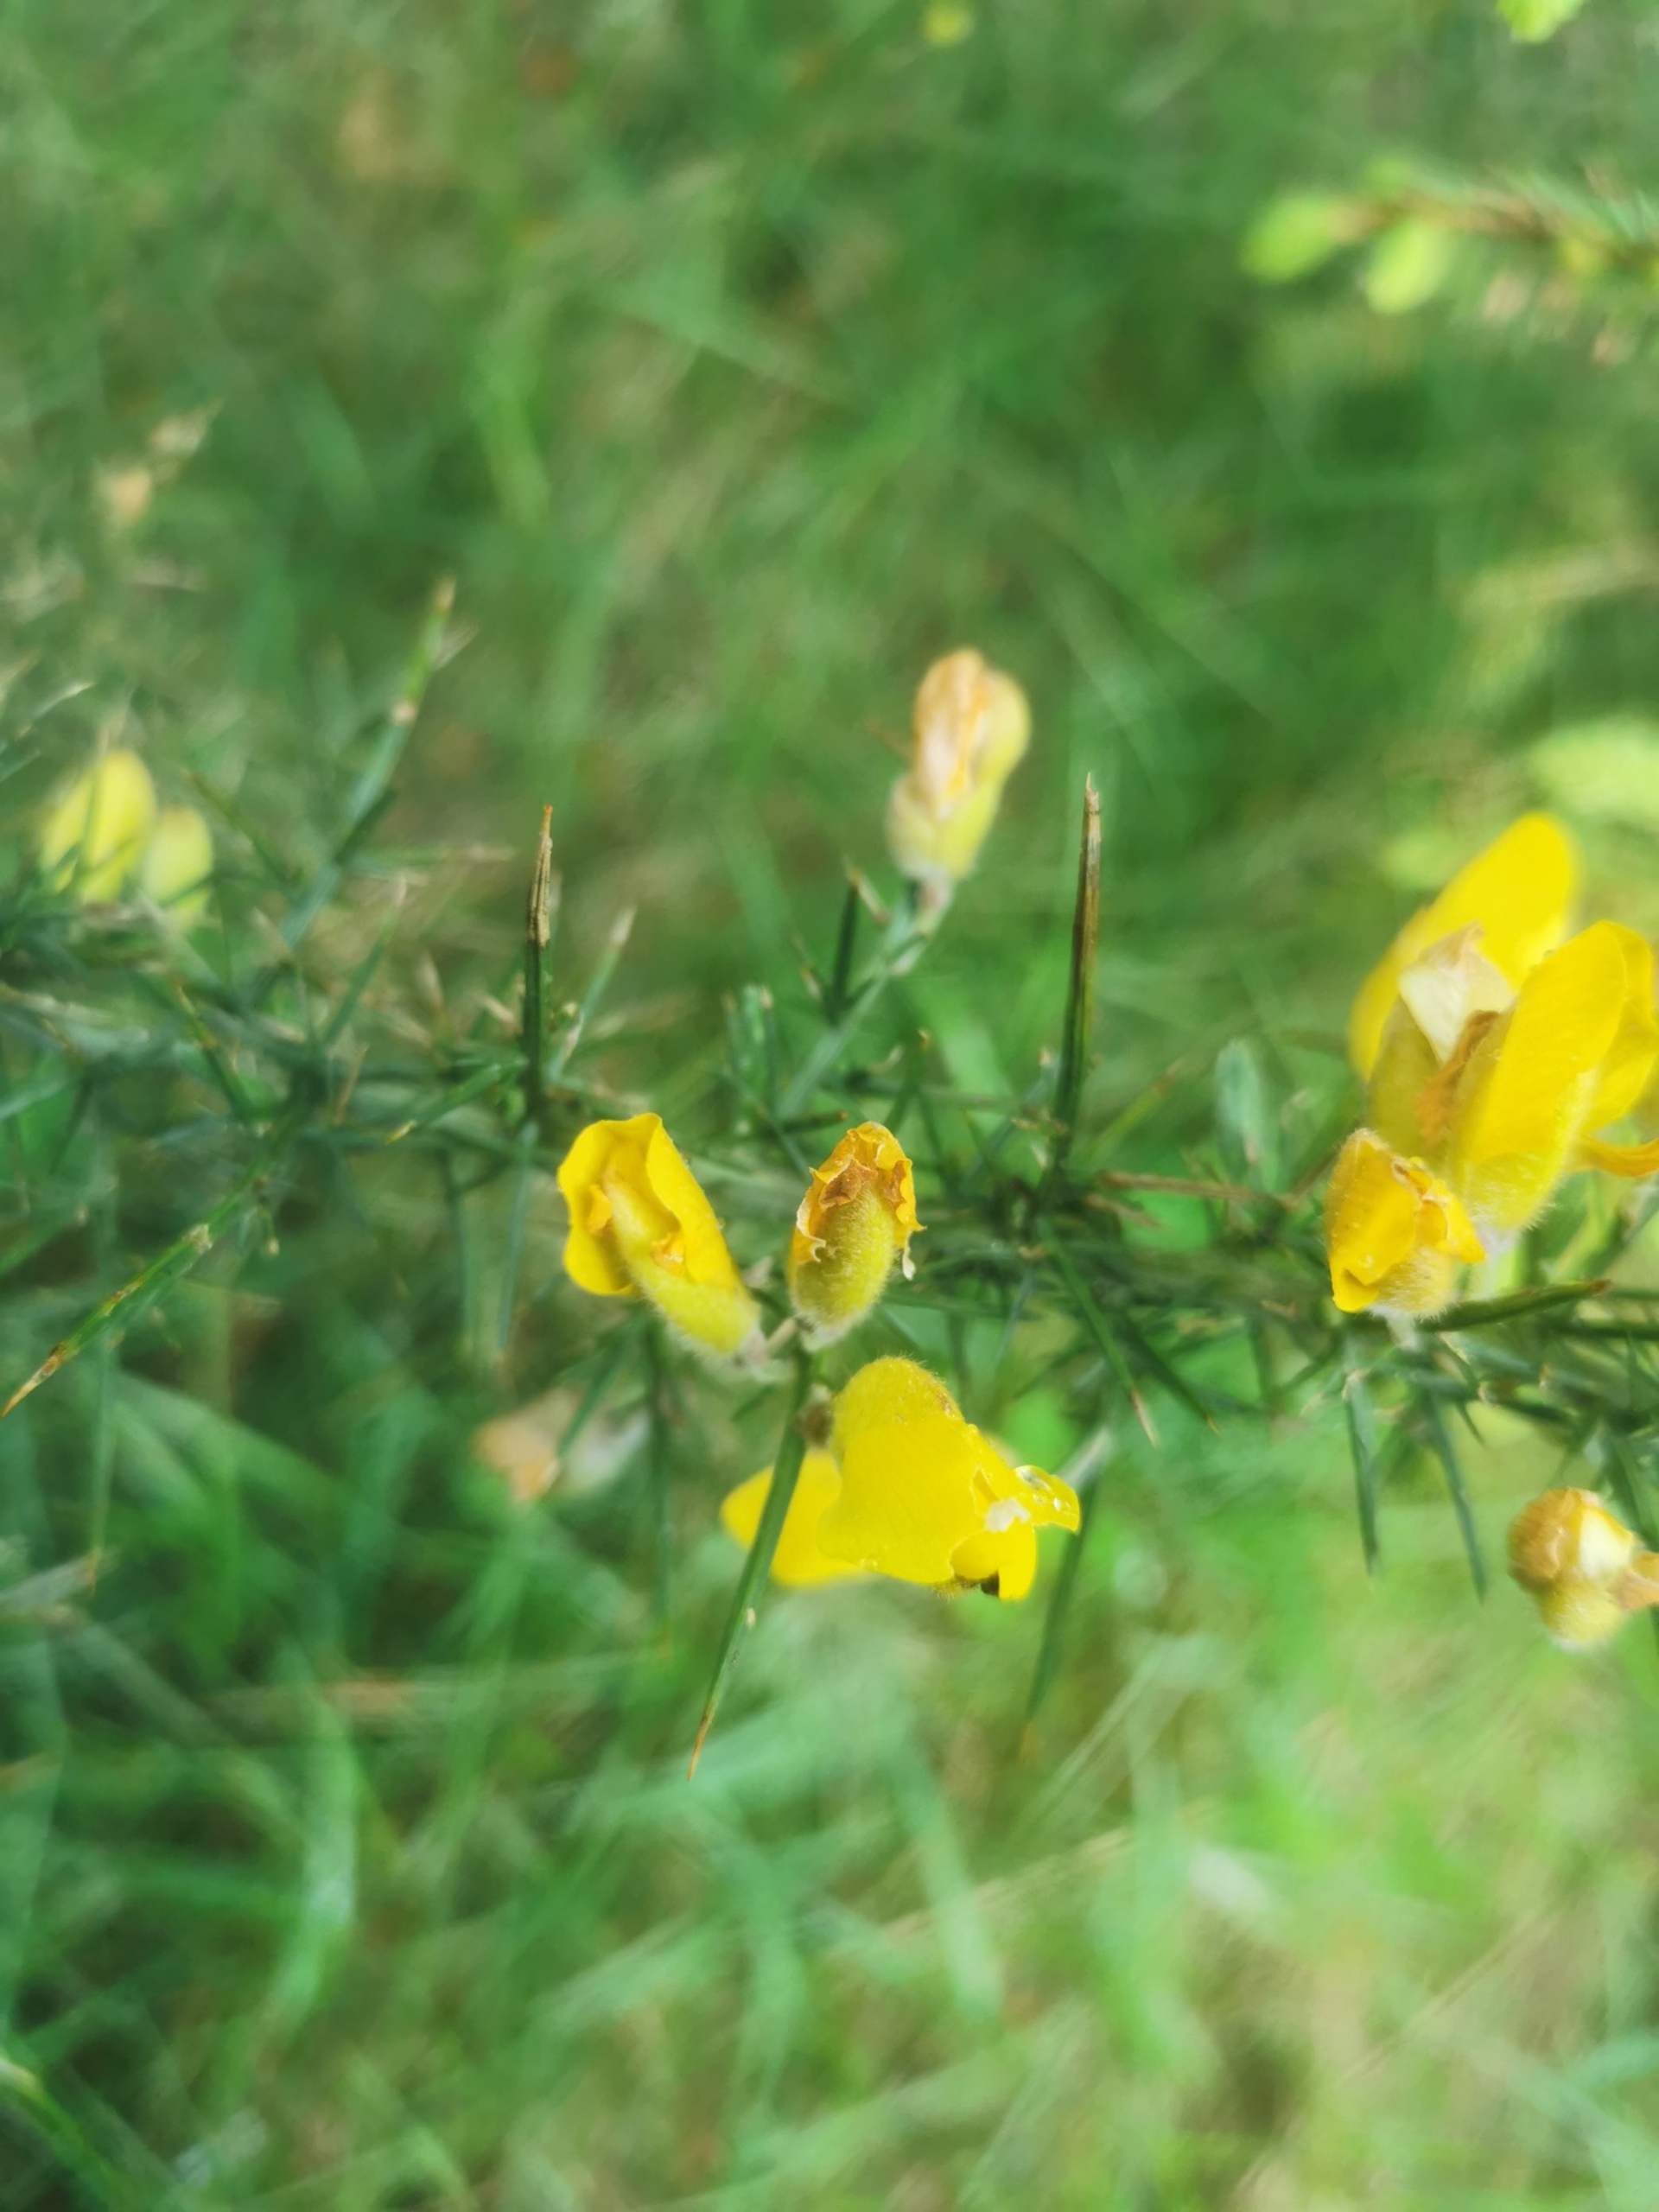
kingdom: Plantae
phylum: Tracheophyta
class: Magnoliopsida
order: Fabales
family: Fabaceae
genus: Ulex
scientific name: Ulex europaeus
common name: Tornblad
